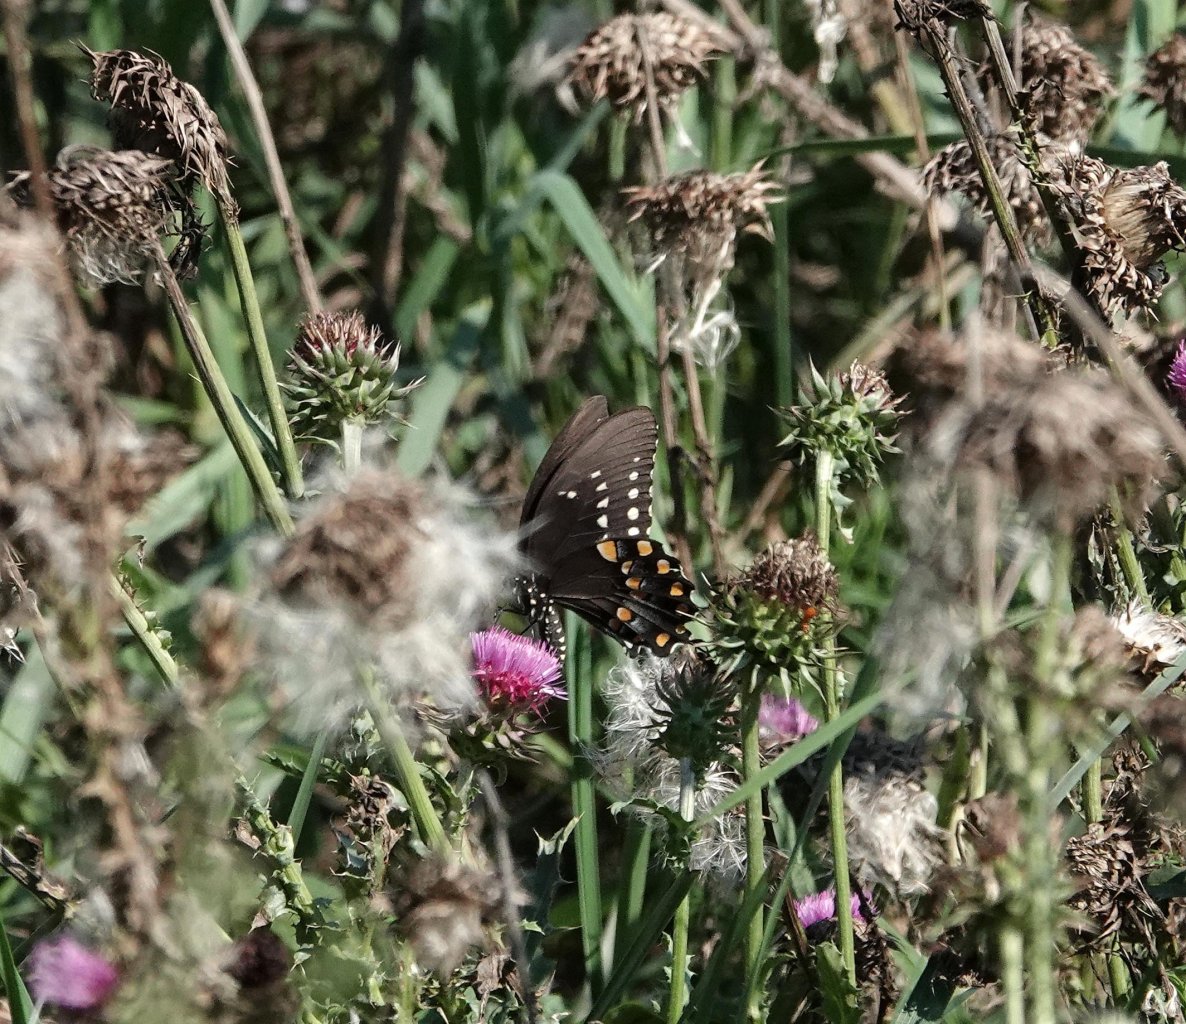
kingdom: Animalia
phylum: Arthropoda
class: Insecta
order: Lepidoptera
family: Papilionidae
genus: Pterourus
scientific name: Pterourus troilus
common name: Spicebush Swallowtail
